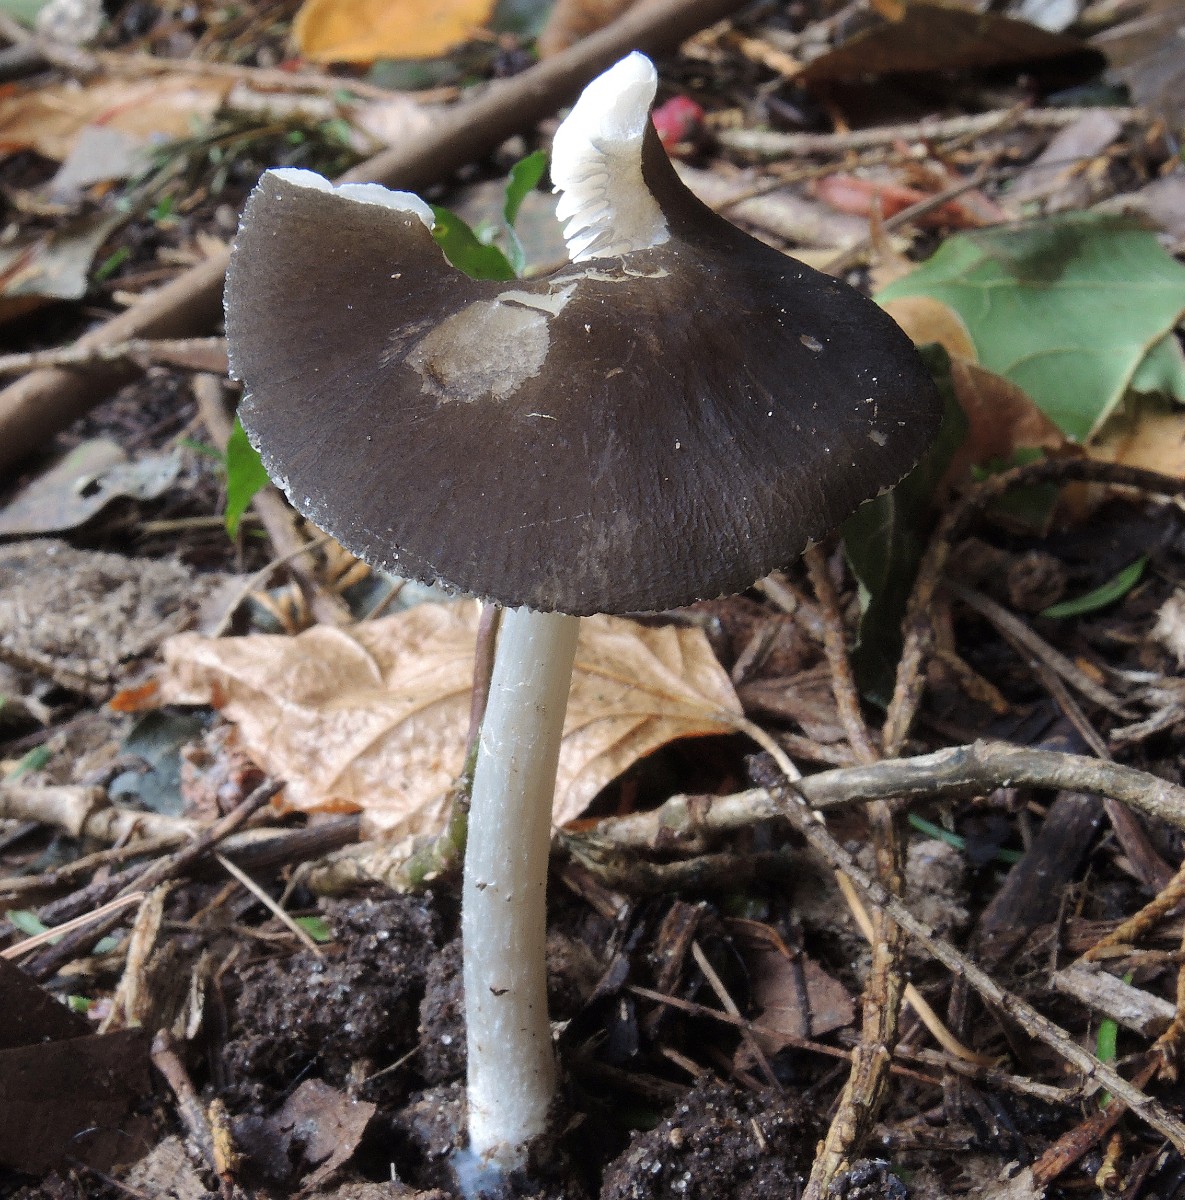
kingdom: Fungi
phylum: Basidiomycota
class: Agaricomycetes
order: Agaricales
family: Pluteaceae
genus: Pluteus
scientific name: Pluteus
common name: pudret skærmhat
